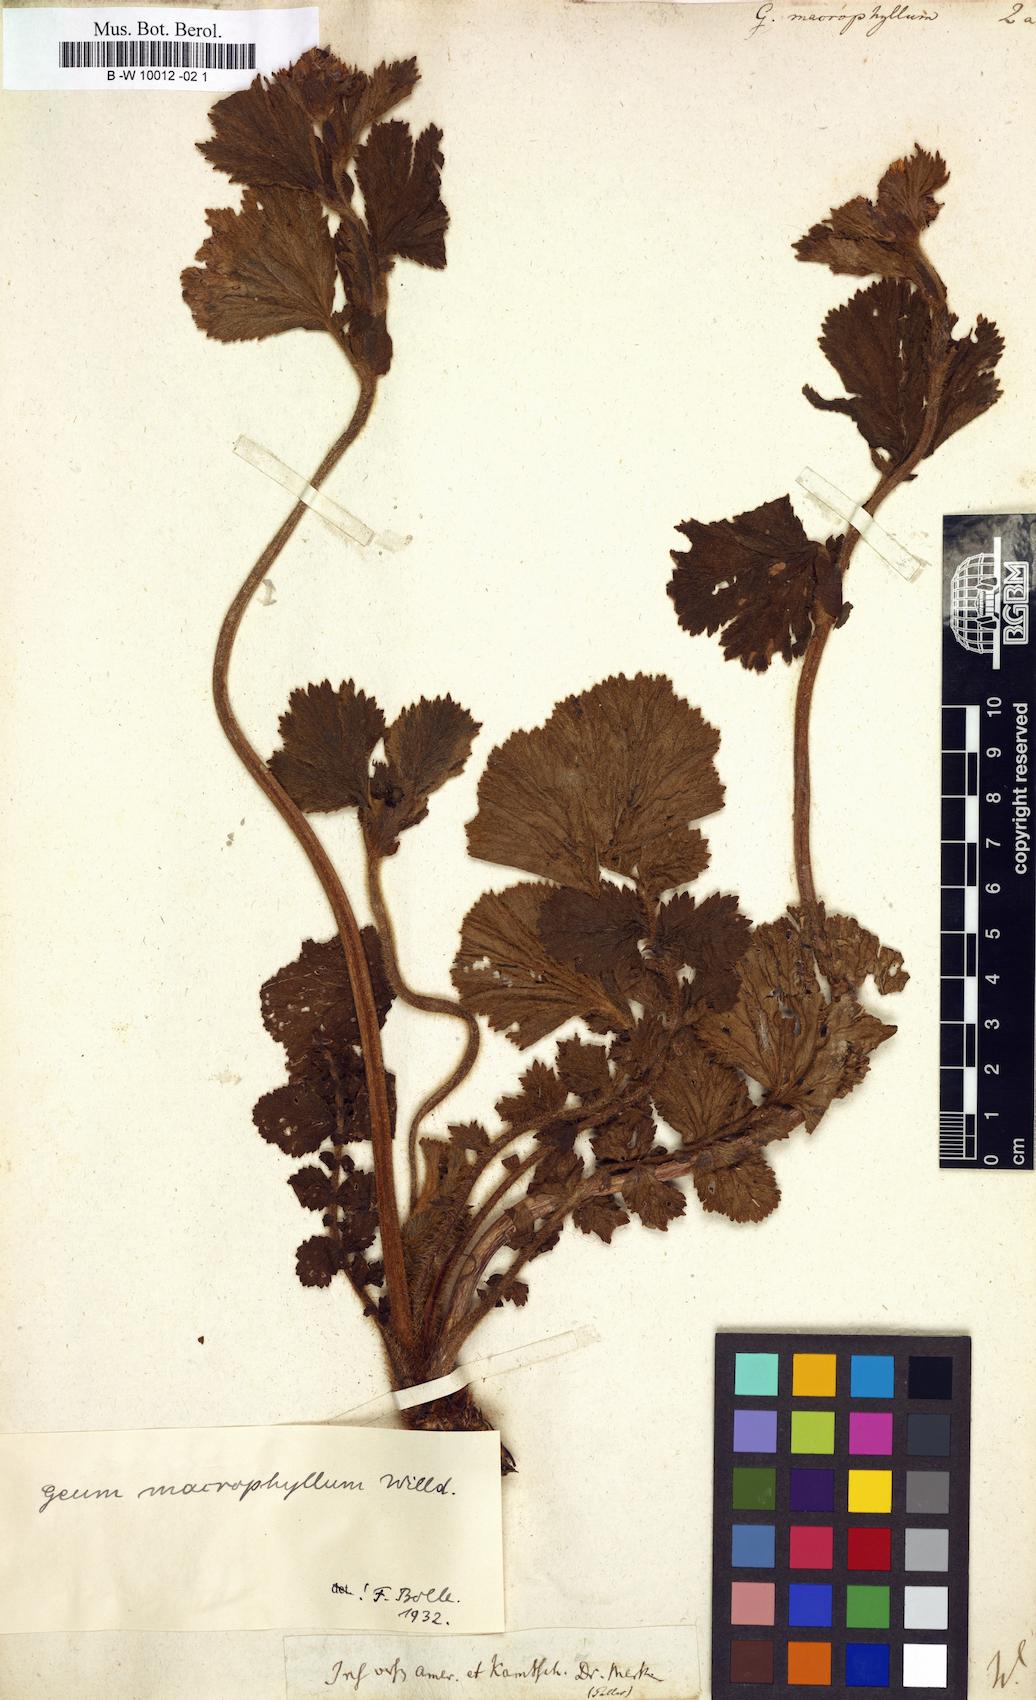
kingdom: Plantae
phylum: Tracheophyta
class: Magnoliopsida
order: Rosales
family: Rosaceae
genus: Geum
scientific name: Geum macrophyllum
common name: Large-leaved avens
